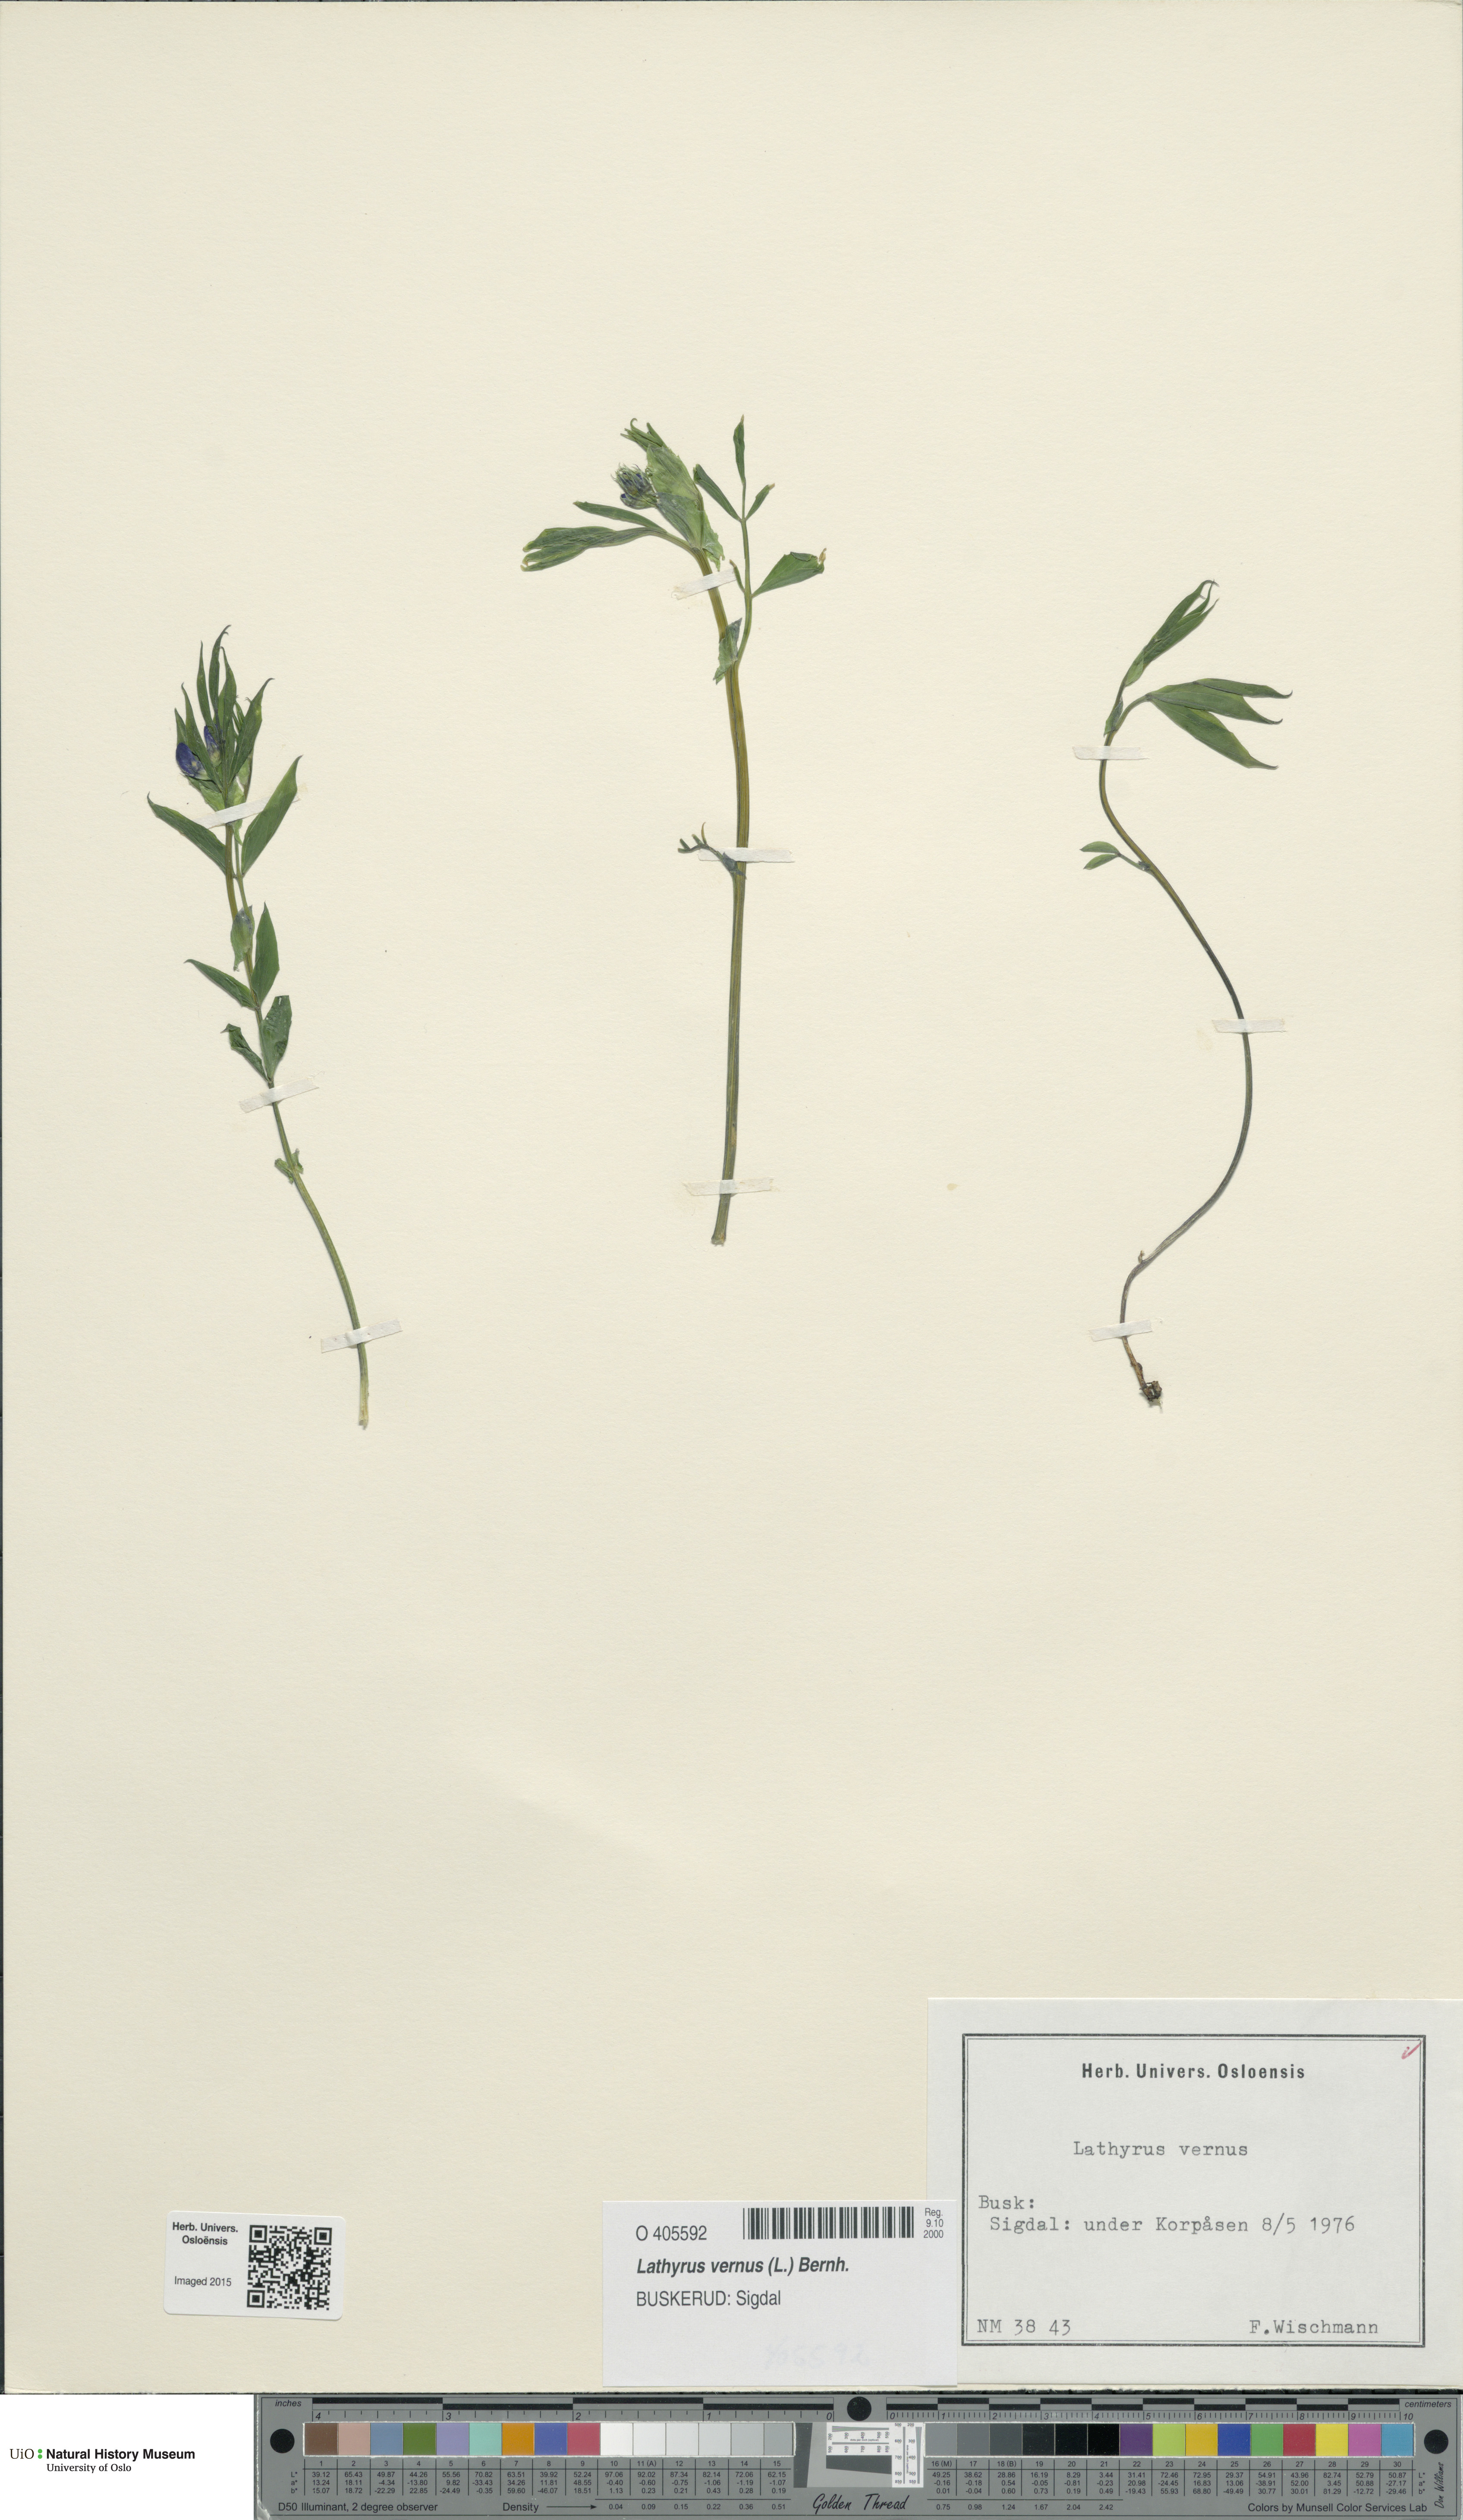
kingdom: Plantae
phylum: Tracheophyta
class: Magnoliopsida
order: Fabales
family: Fabaceae
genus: Lathyrus
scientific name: Lathyrus vernus
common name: Spring pea
